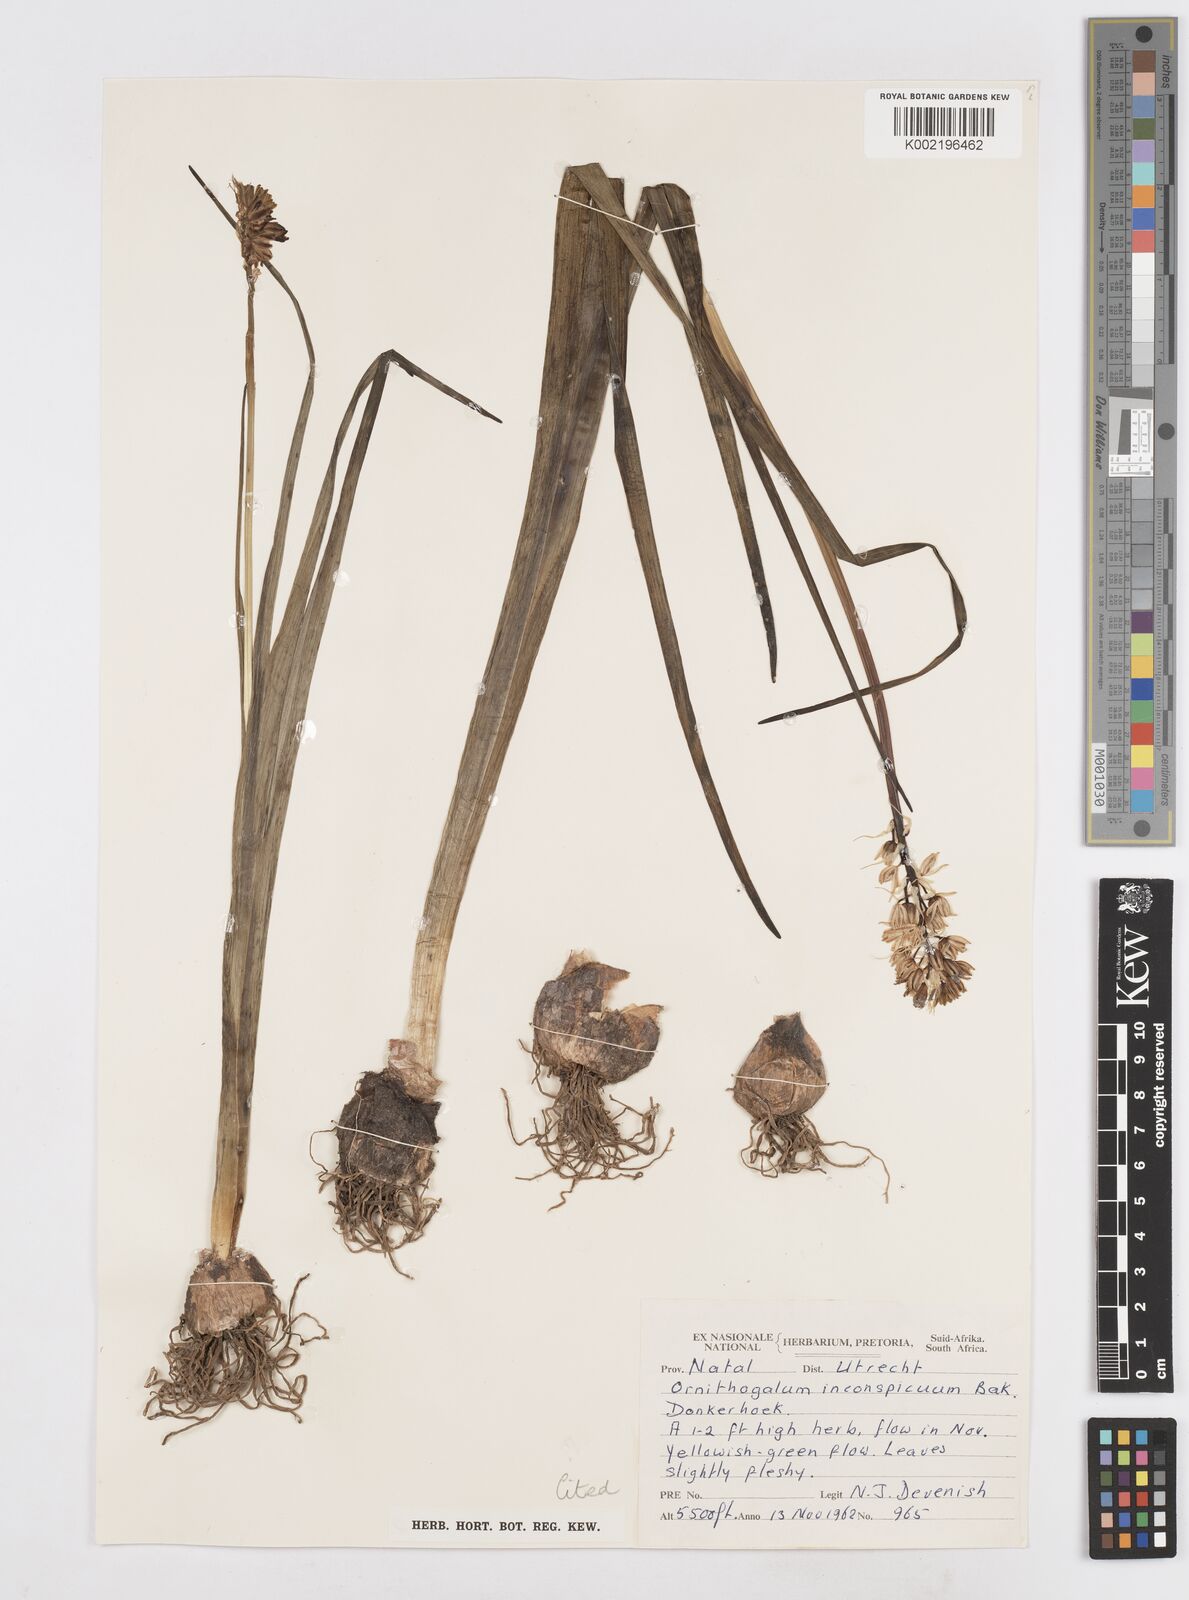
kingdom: Plantae
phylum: Tracheophyta
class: Liliopsida
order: Asparagales
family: Asparagaceae
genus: Albuca
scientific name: Albuca virens
